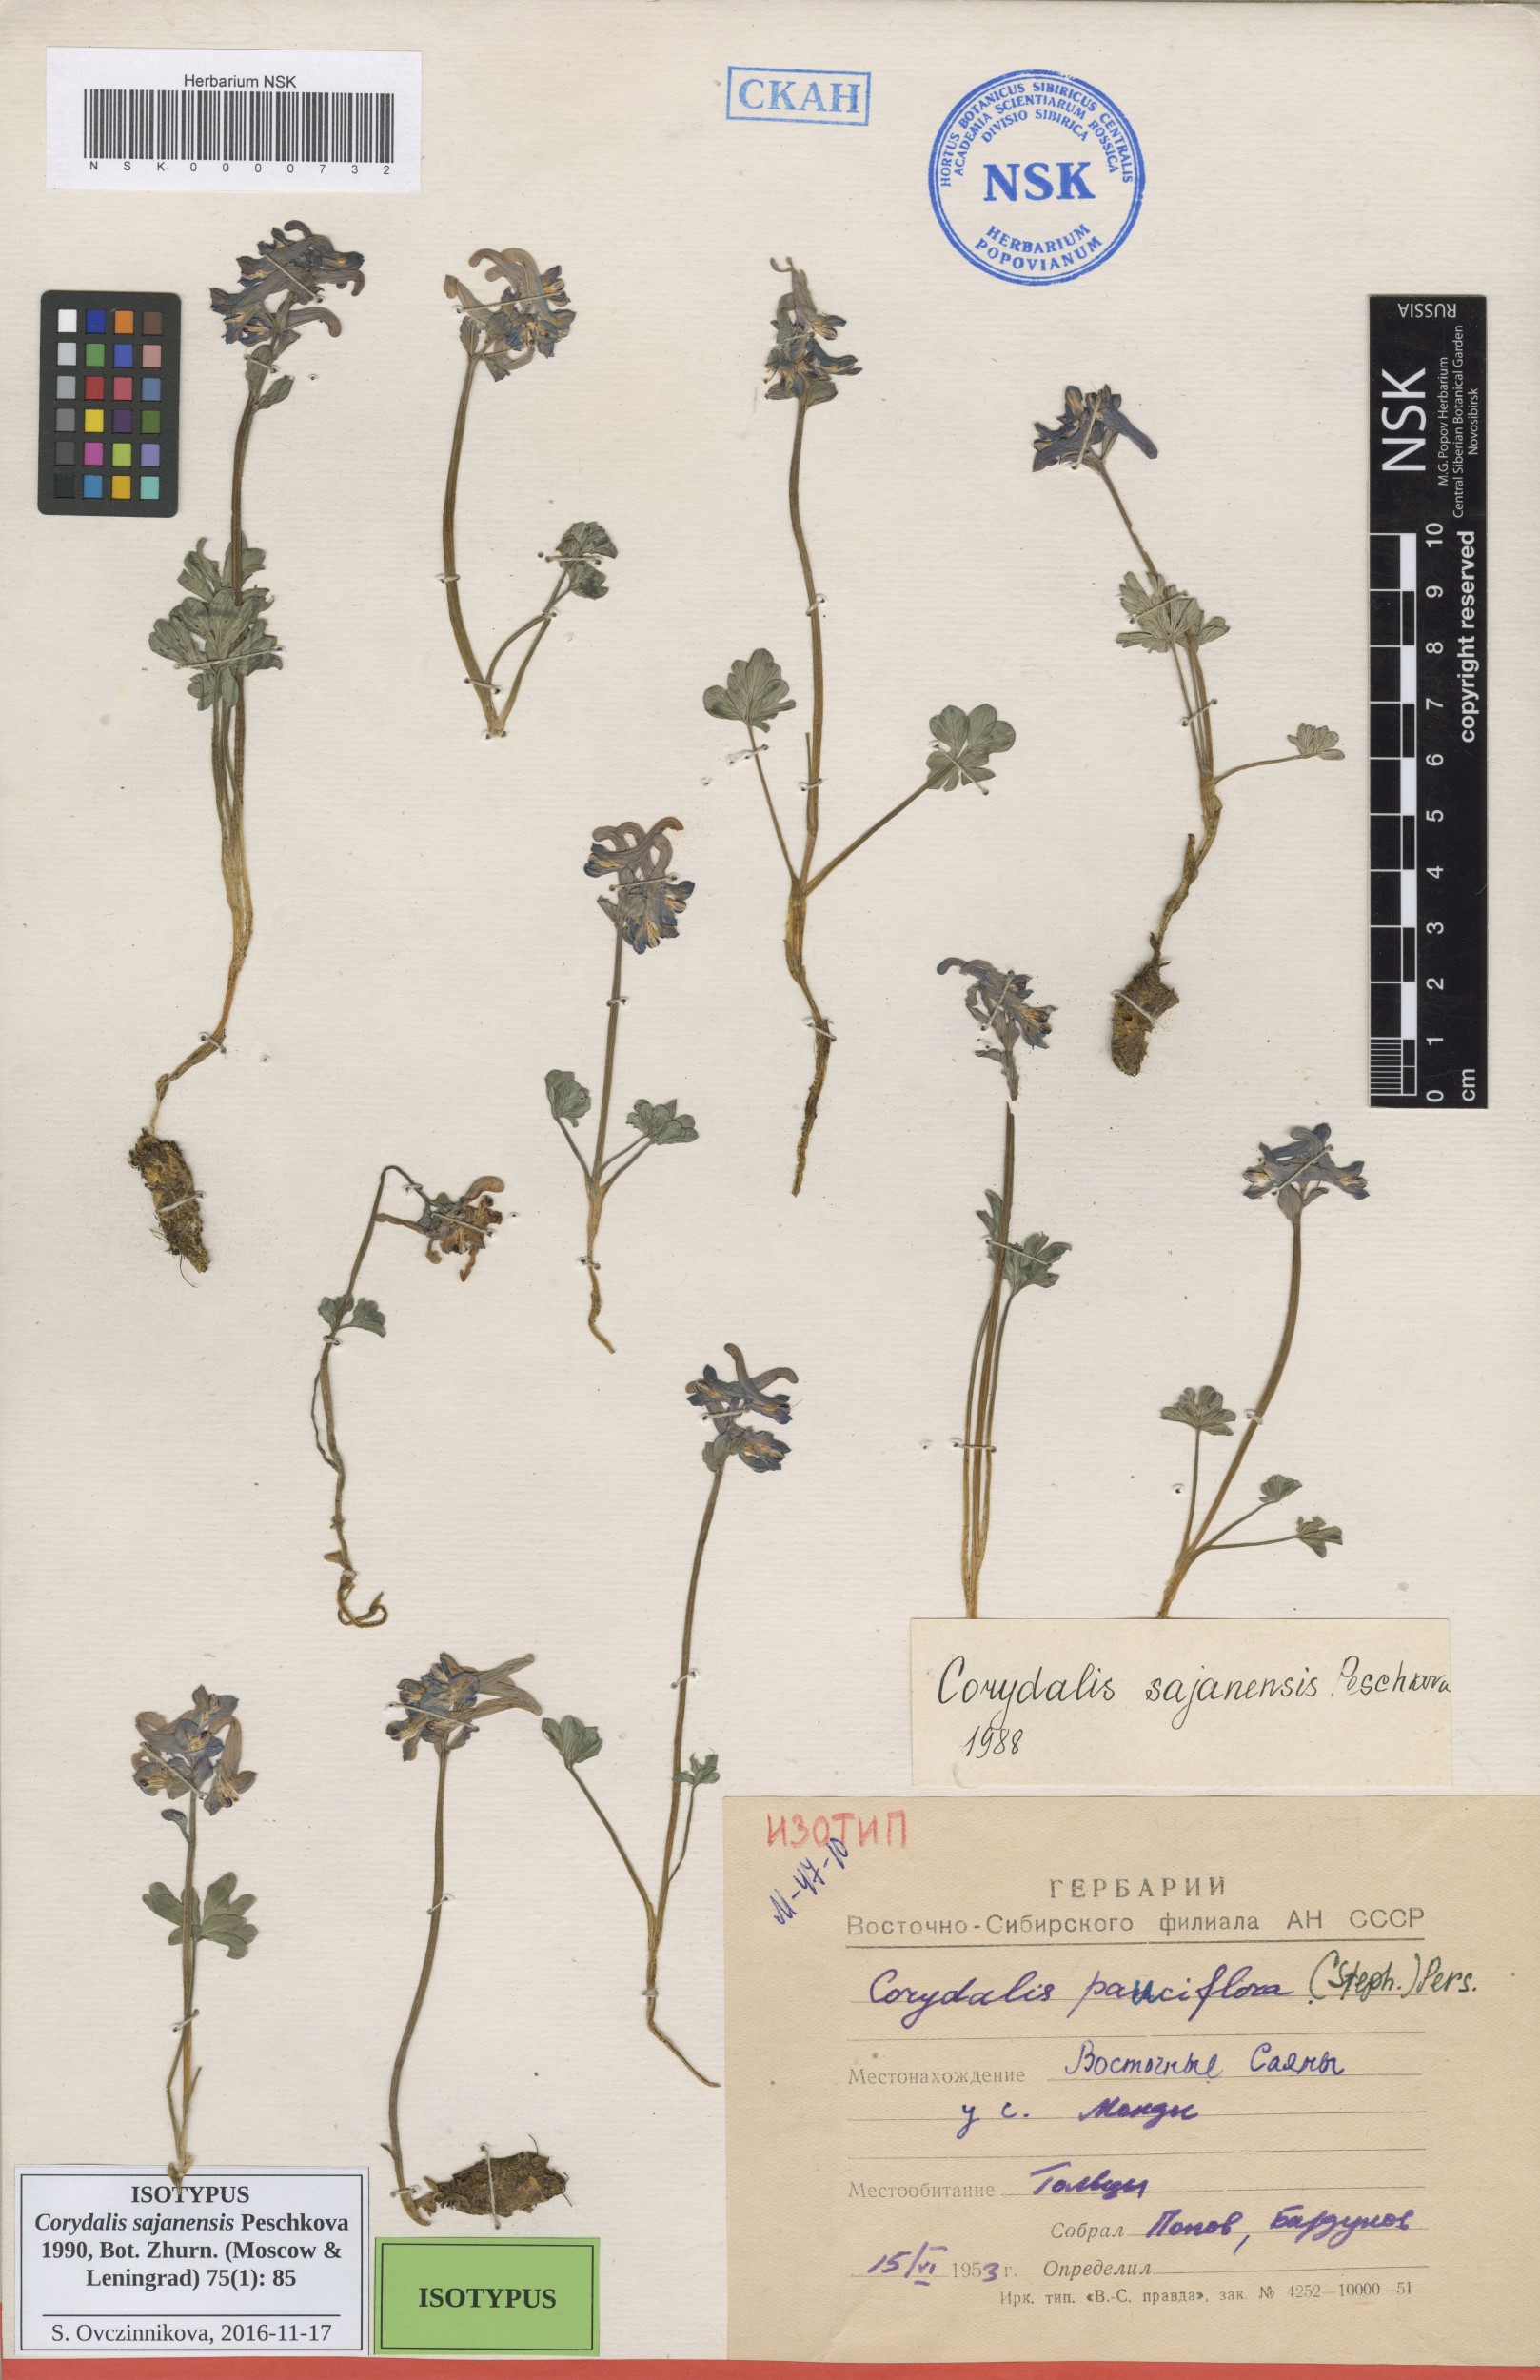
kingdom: Plantae
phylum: Tracheophyta
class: Magnoliopsida
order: Ranunculales
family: Papaveraceae
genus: Corydalis
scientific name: Corydalis pauciflora
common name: Blue corydalis
